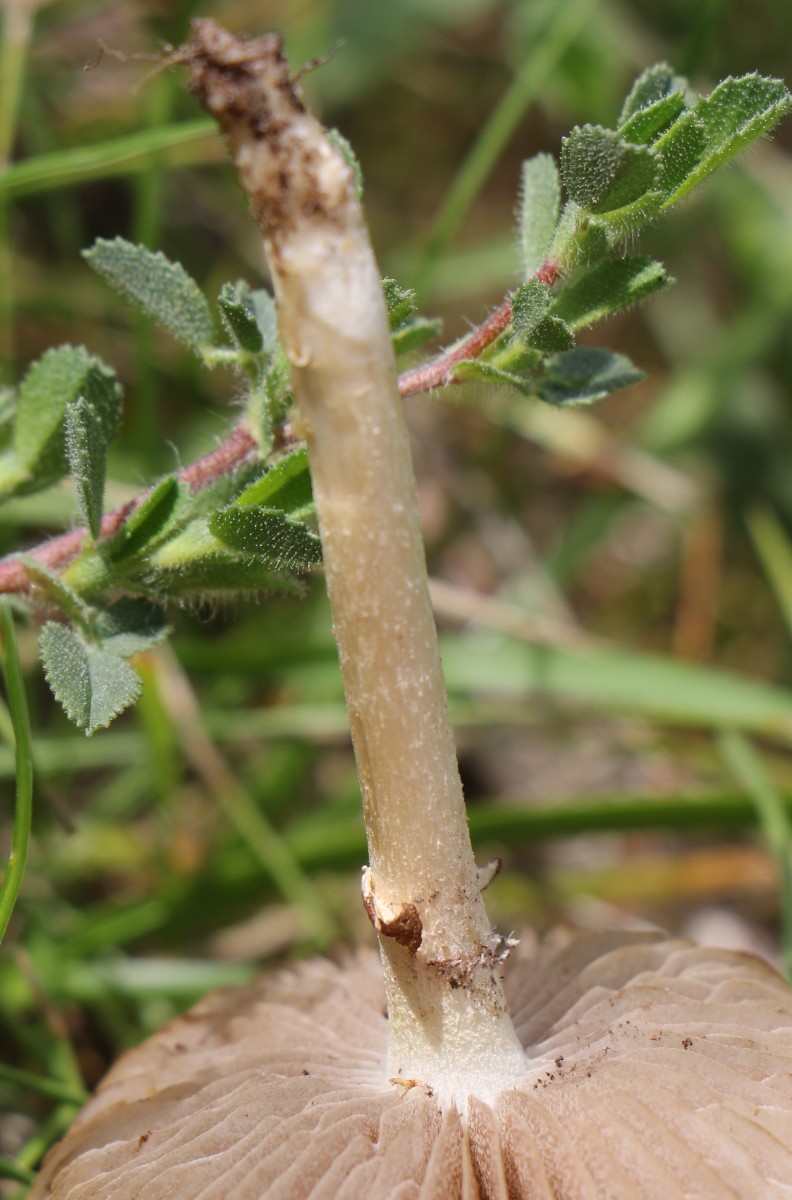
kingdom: Fungi
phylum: Basidiomycota
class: Agaricomycetes
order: Agaricales
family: Strophariaceae
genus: Agrocybe
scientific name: Agrocybe
